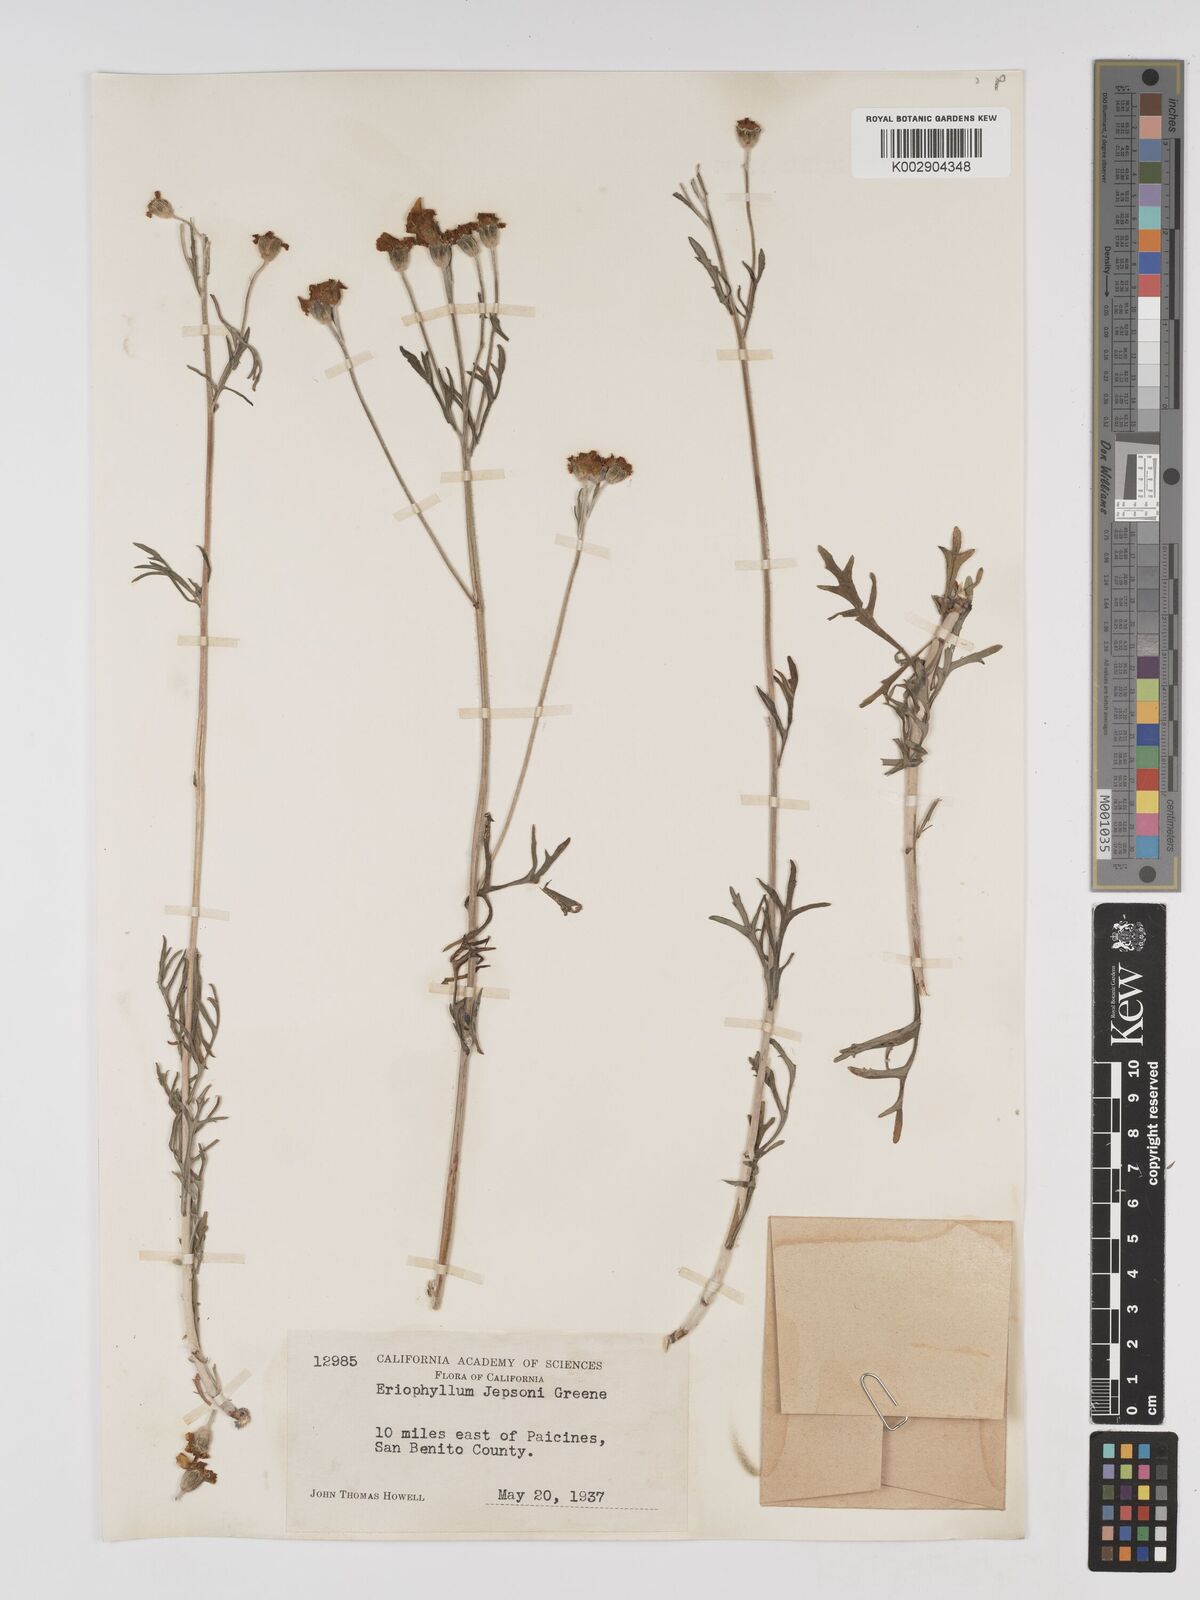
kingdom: Plantae
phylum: Tracheophyta
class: Magnoliopsida
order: Asterales
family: Asteraceae
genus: Eriophyllum
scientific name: Eriophyllum jepsonii
